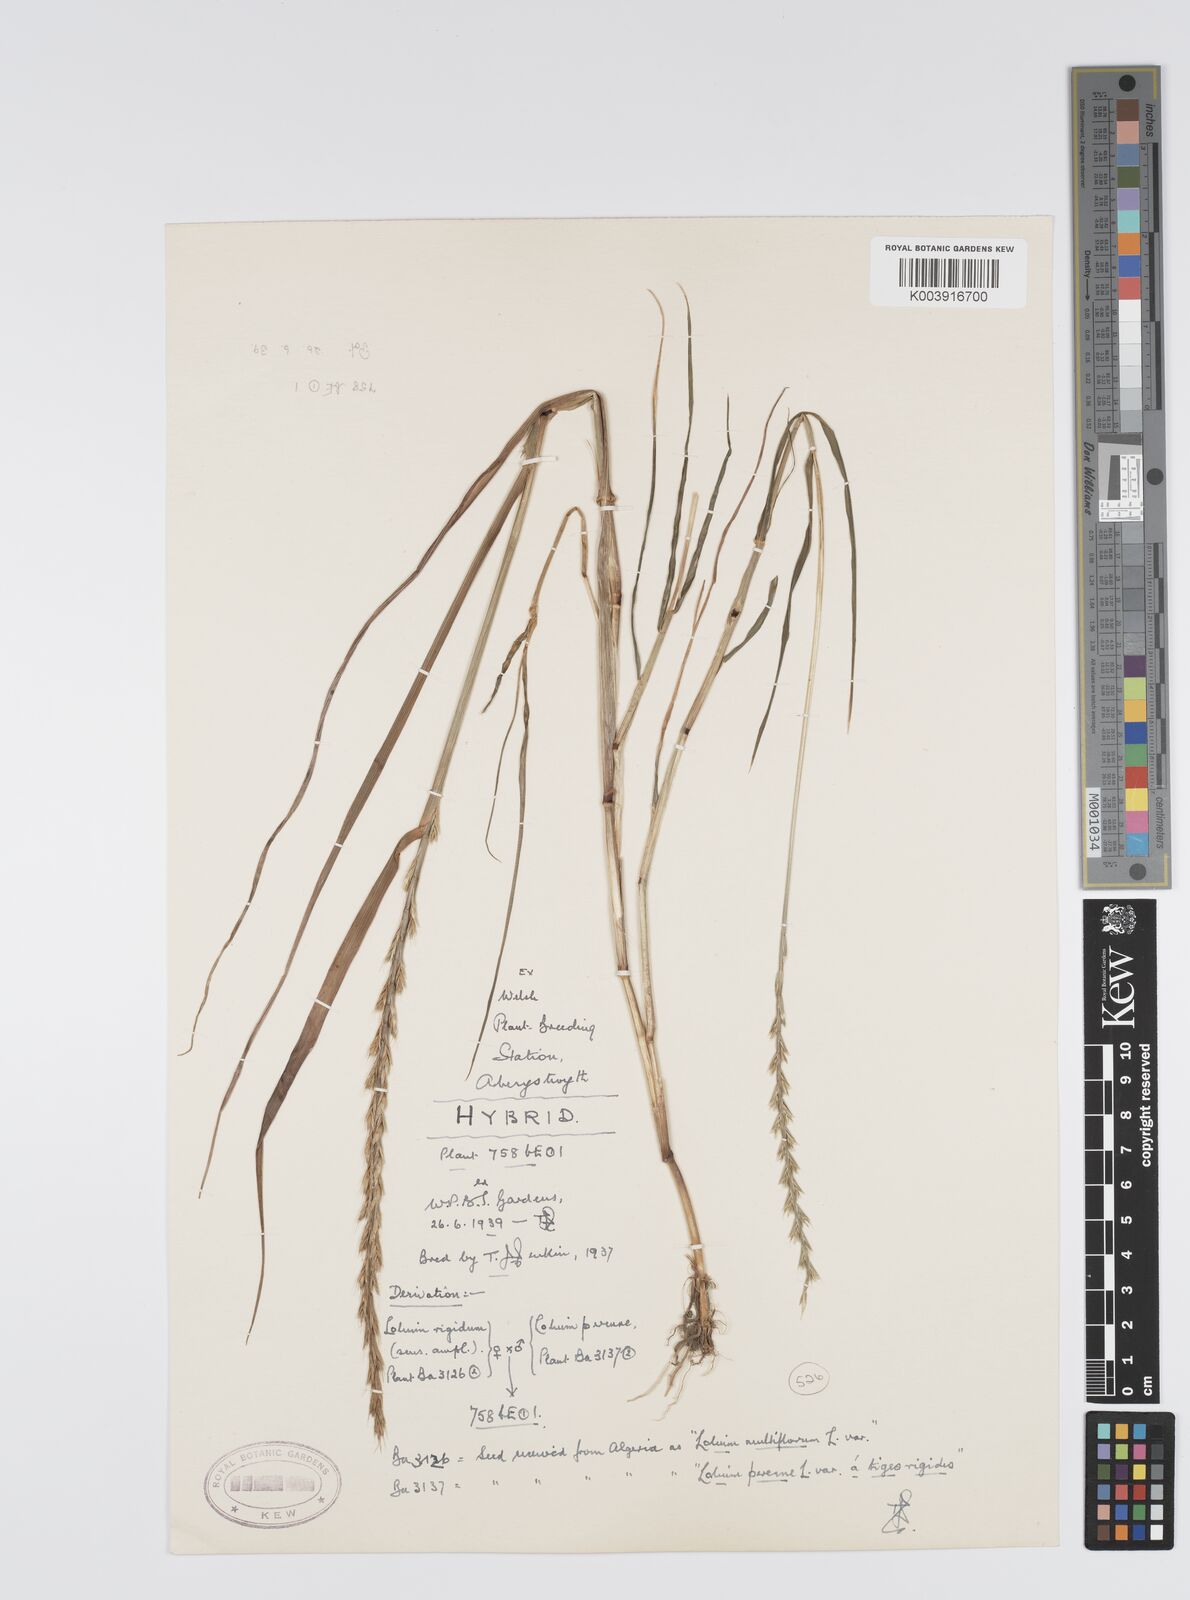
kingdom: Plantae
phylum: Tracheophyta
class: Liliopsida
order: Poales
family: Poaceae
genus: Lolium
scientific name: Lolium perenne
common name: Perennial ryegrass
